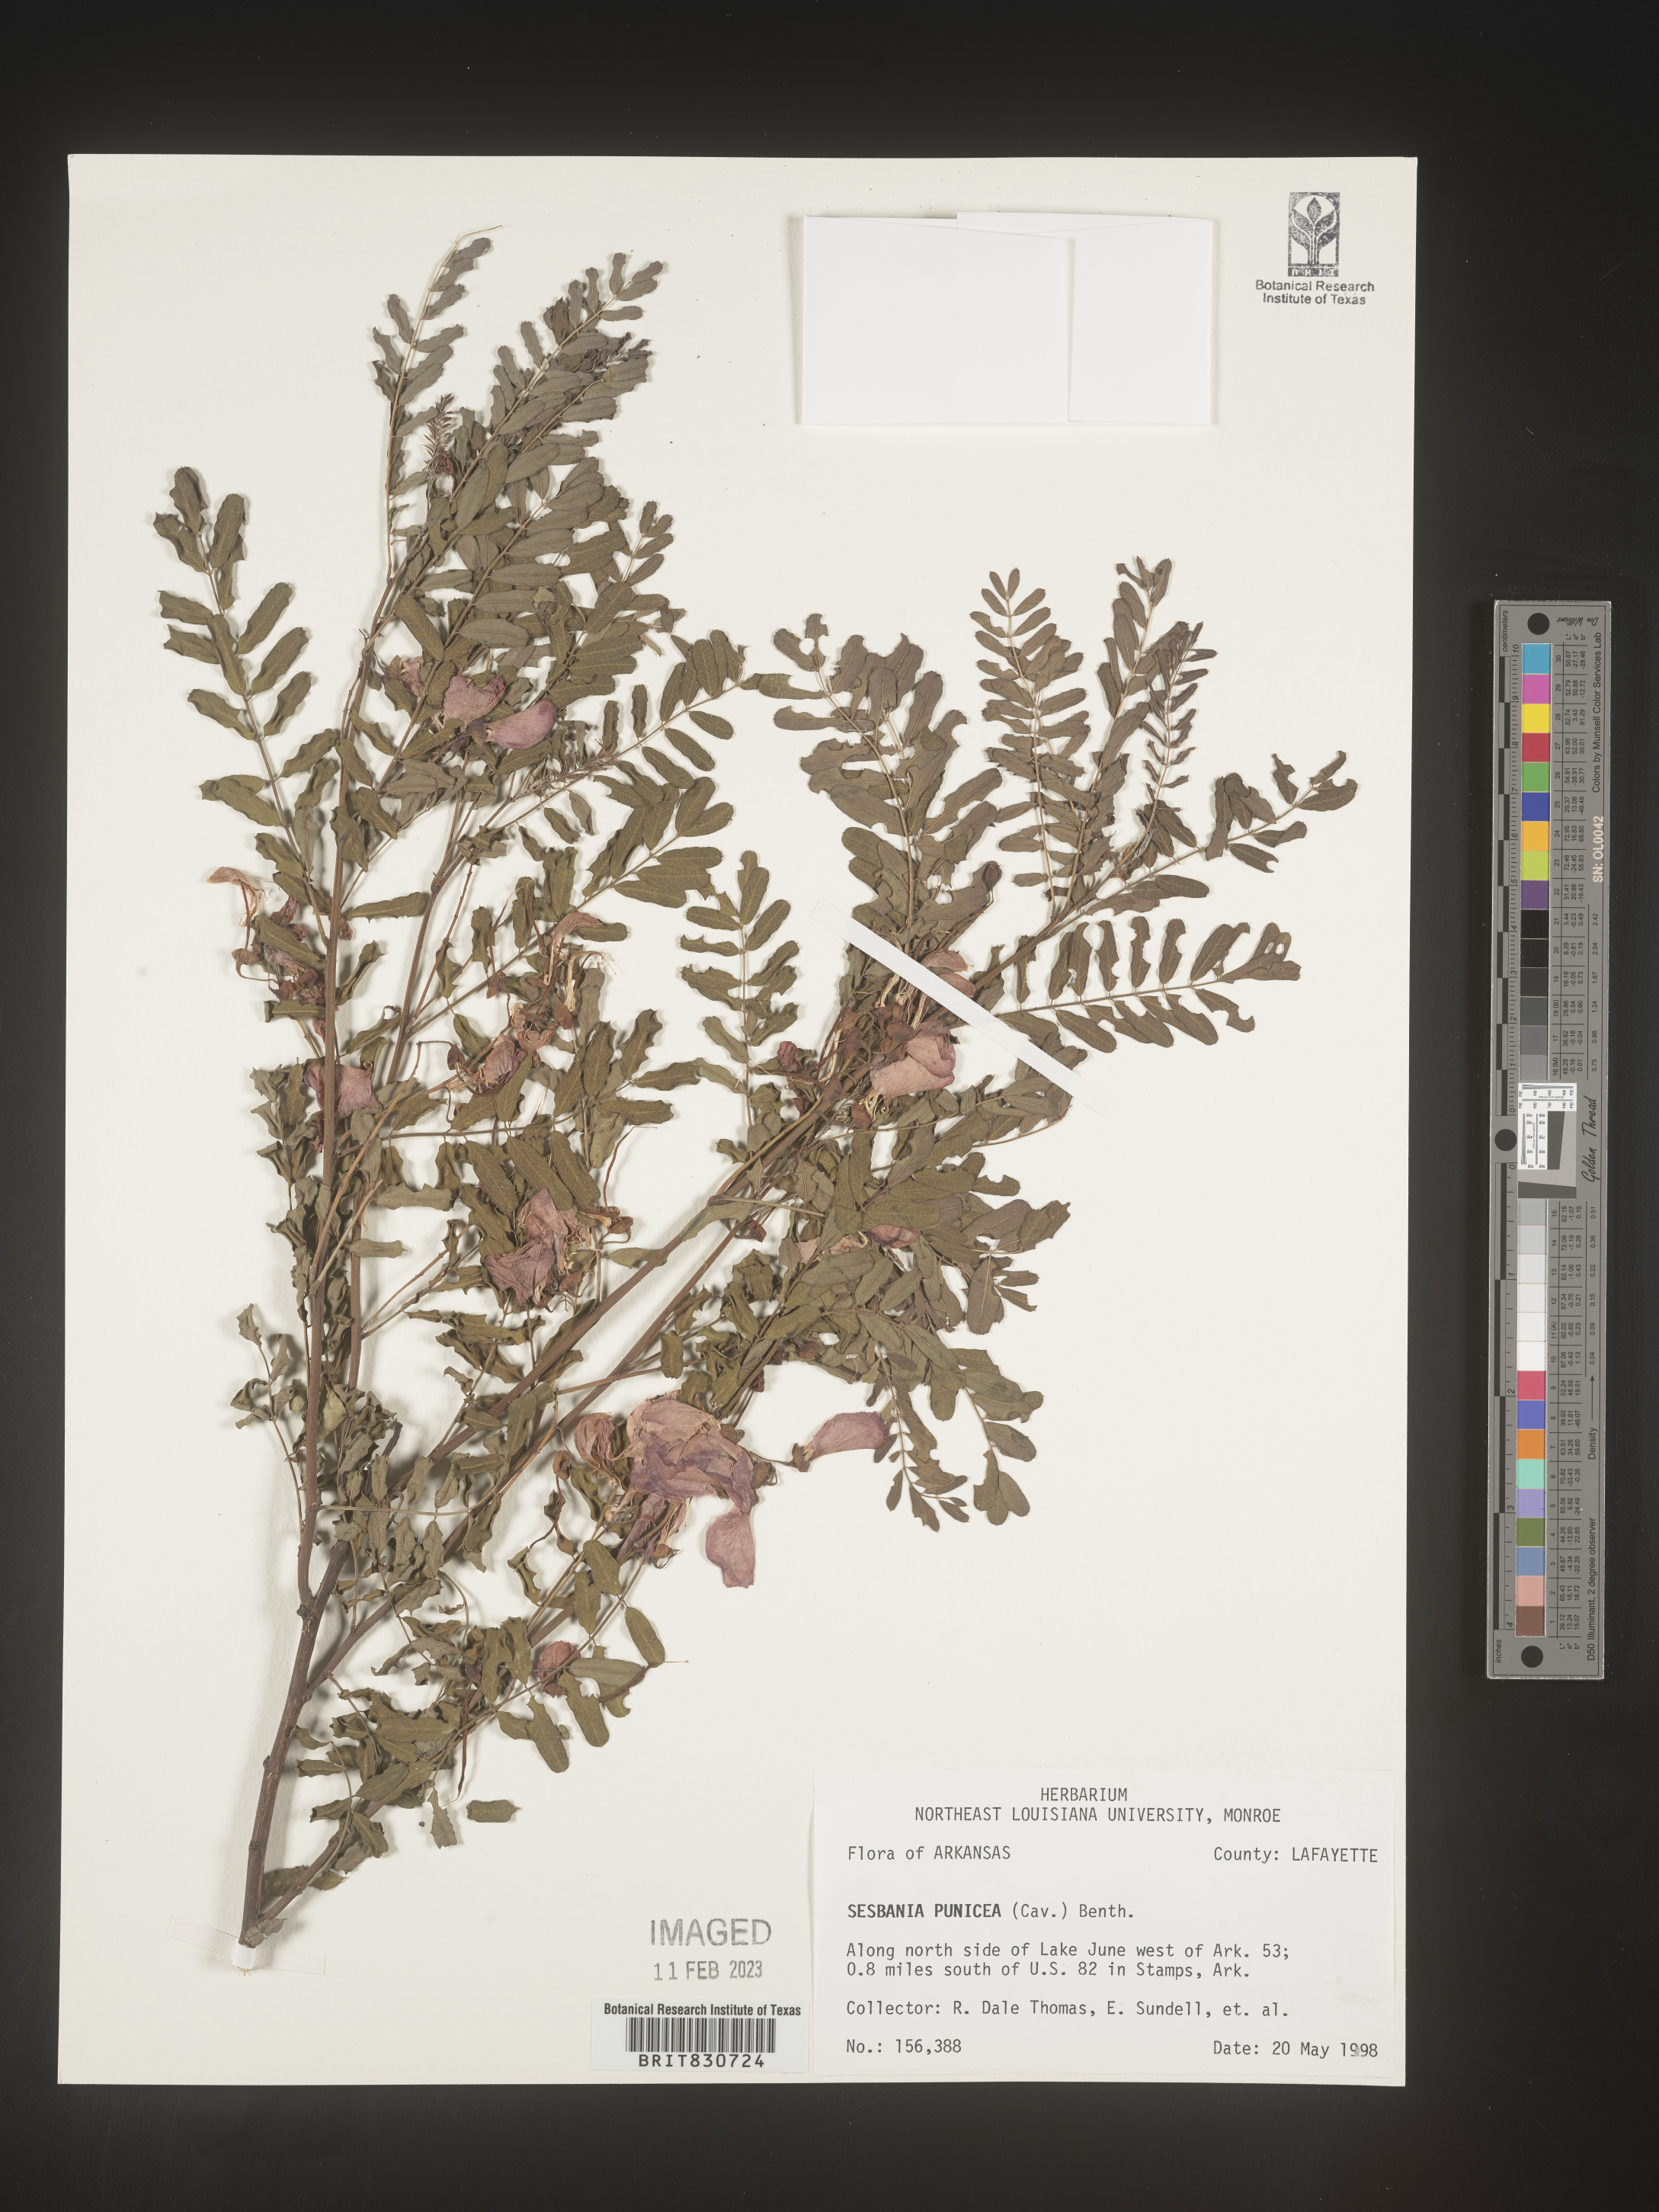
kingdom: Plantae
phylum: Tracheophyta
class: Magnoliopsida
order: Fabales
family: Fabaceae
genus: Sesbania
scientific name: Sesbania punicea
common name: Rattlebox
